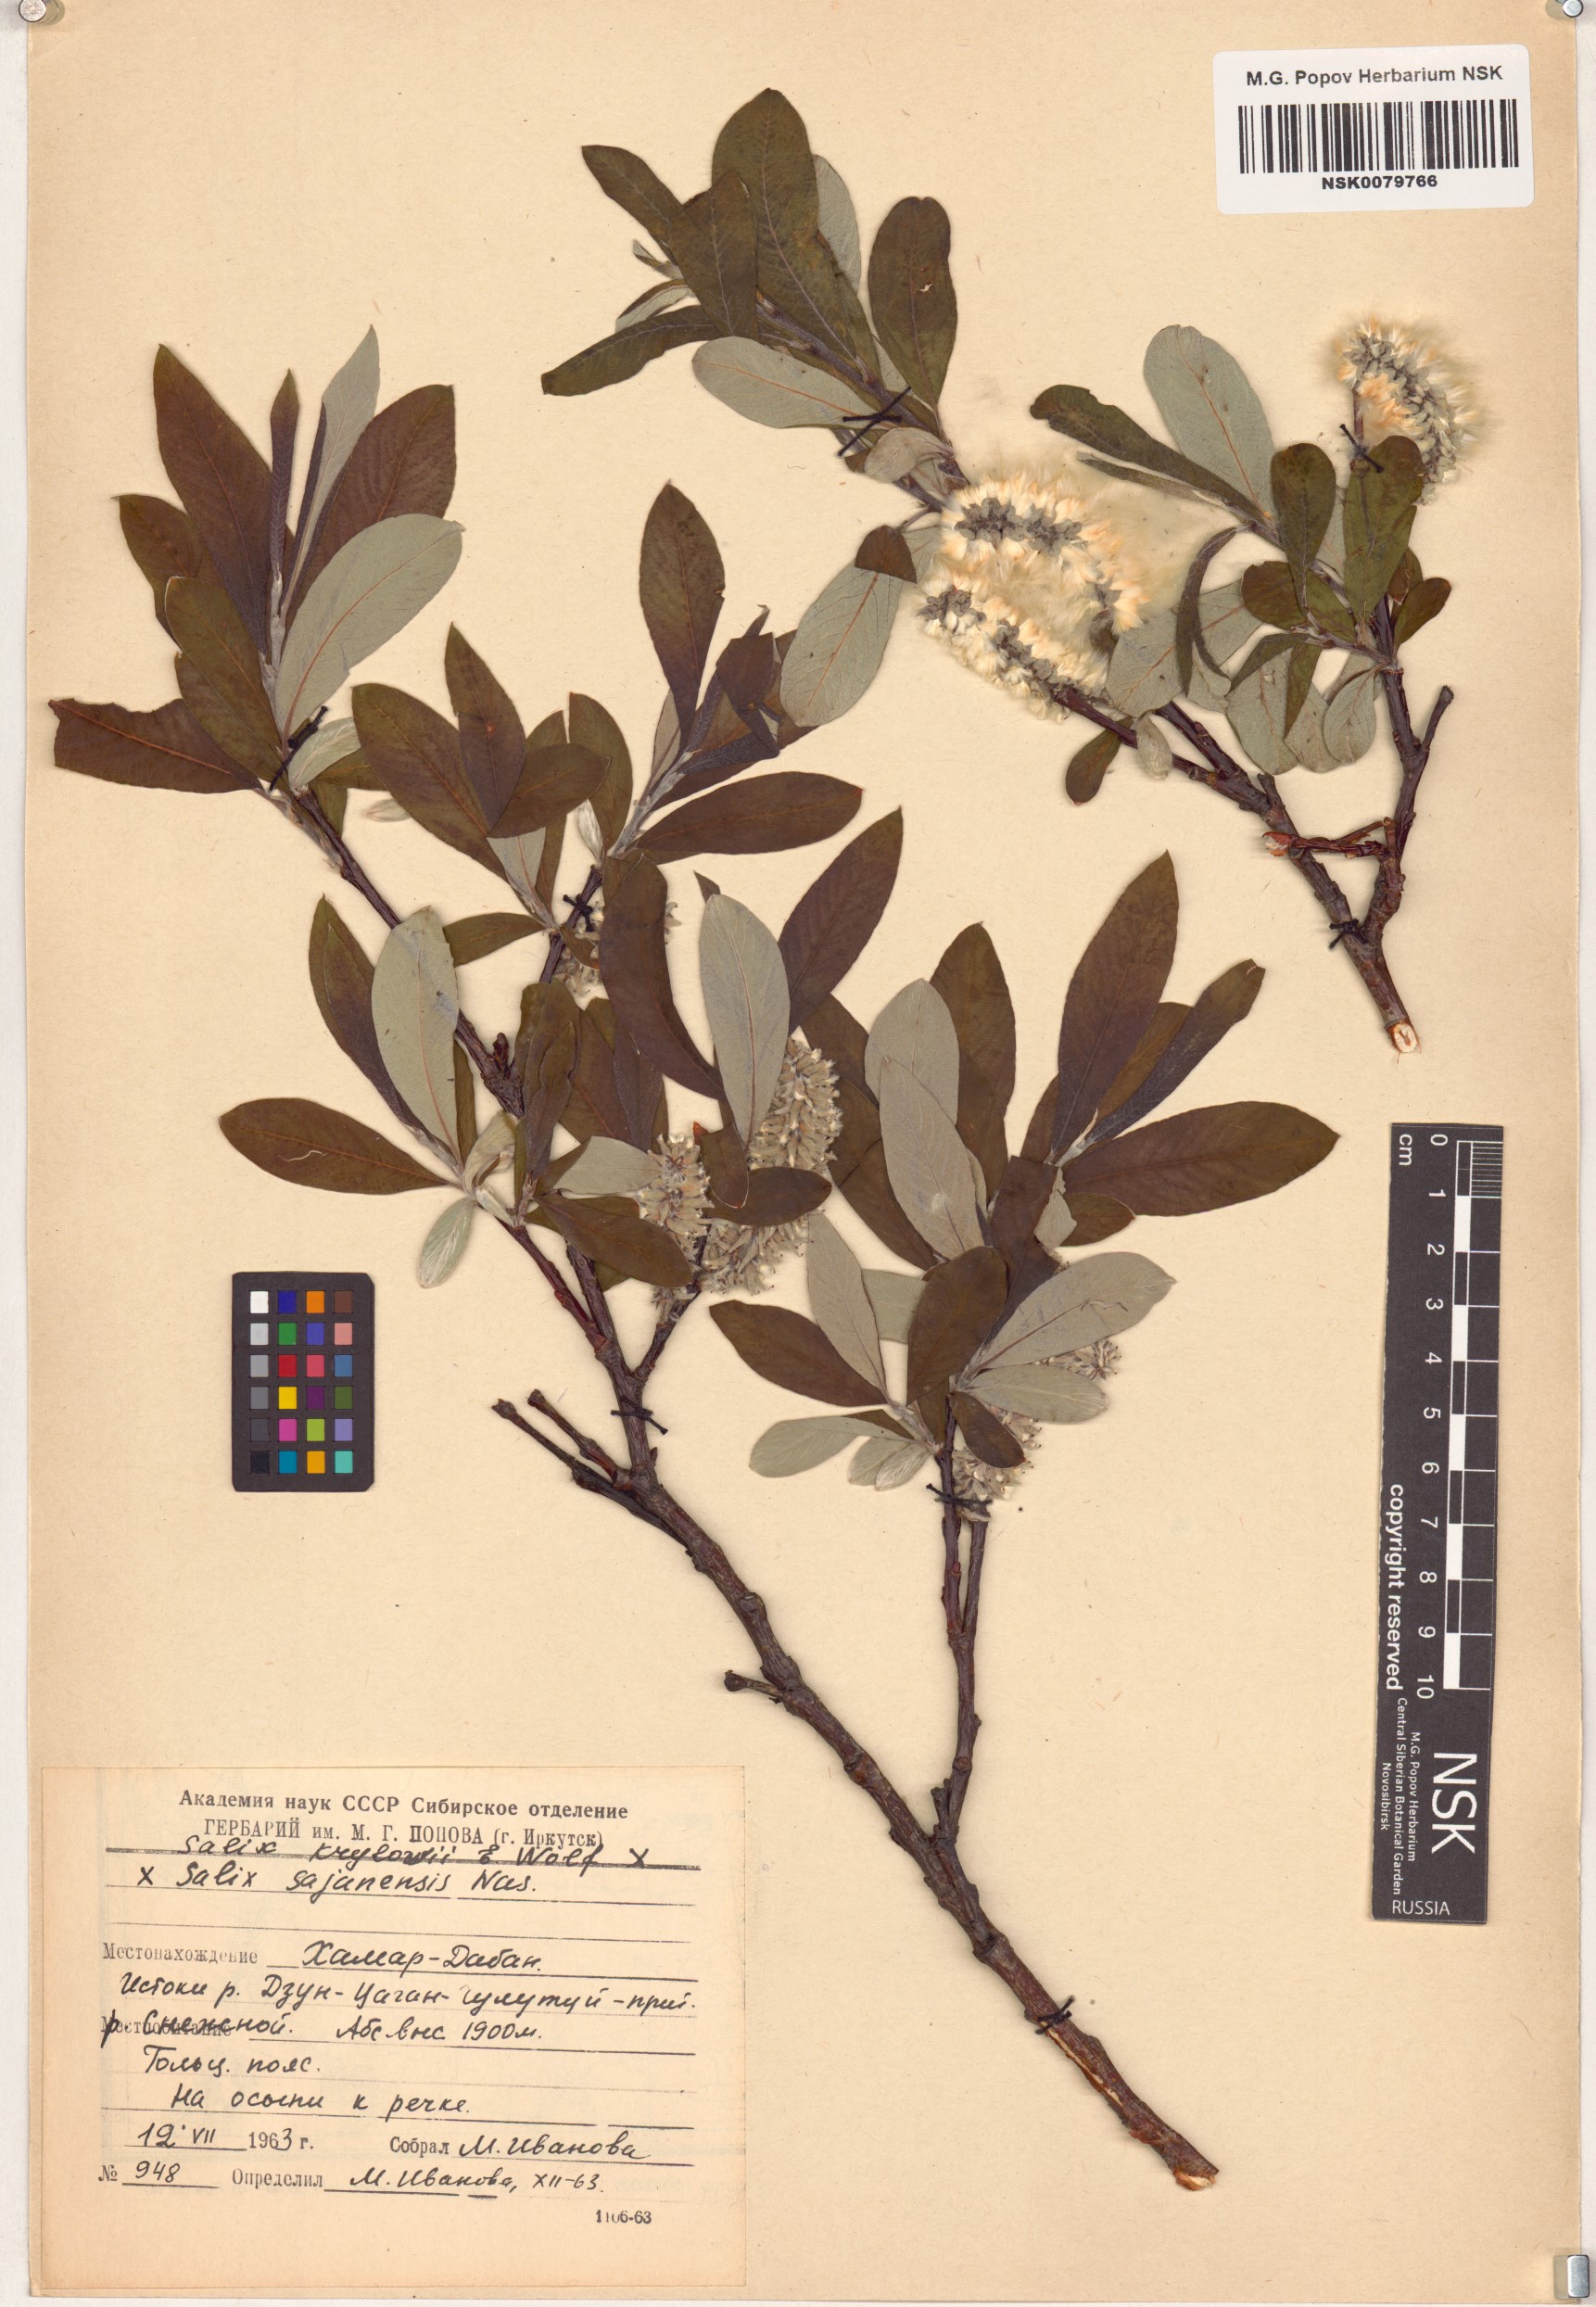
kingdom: Plantae
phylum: Tracheophyta
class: Magnoliopsida
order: Malpighiales
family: Salicaceae
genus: Salix
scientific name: Salix
